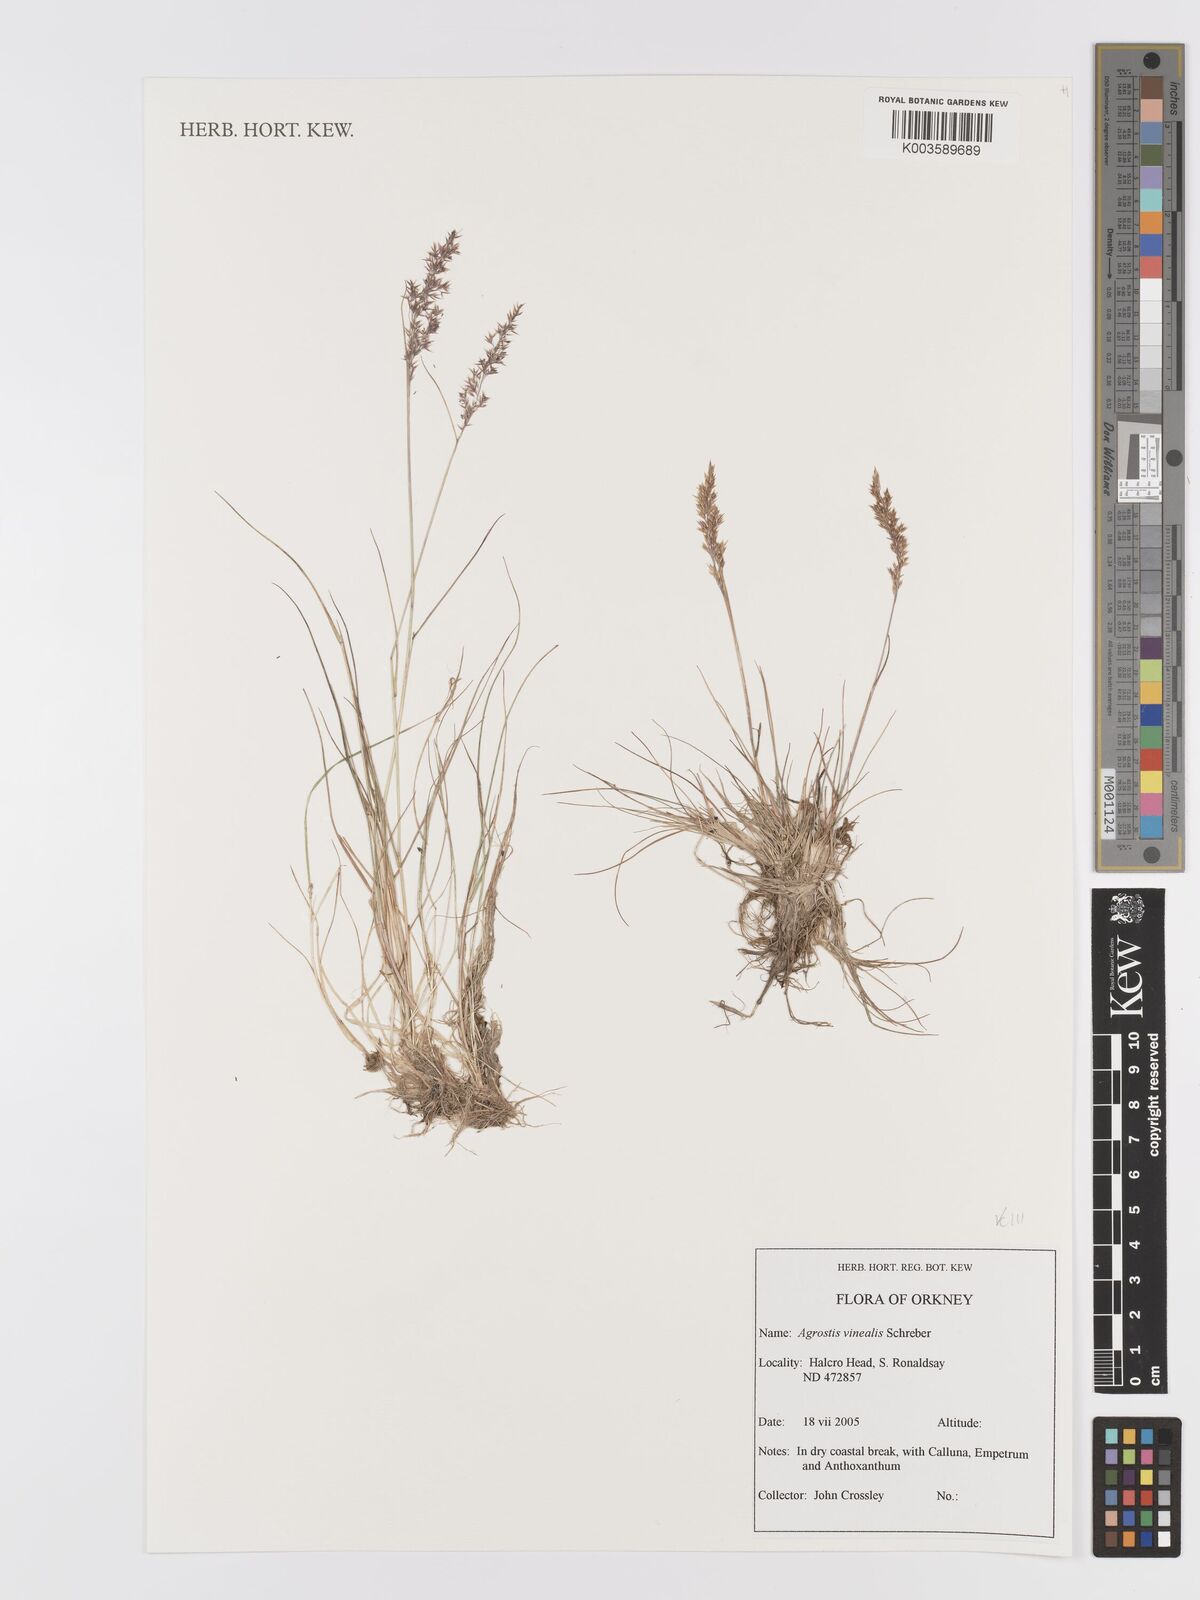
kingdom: Plantae
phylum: Tracheophyta
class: Liliopsida
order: Poales
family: Poaceae
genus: Agrostis
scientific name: Agrostis
